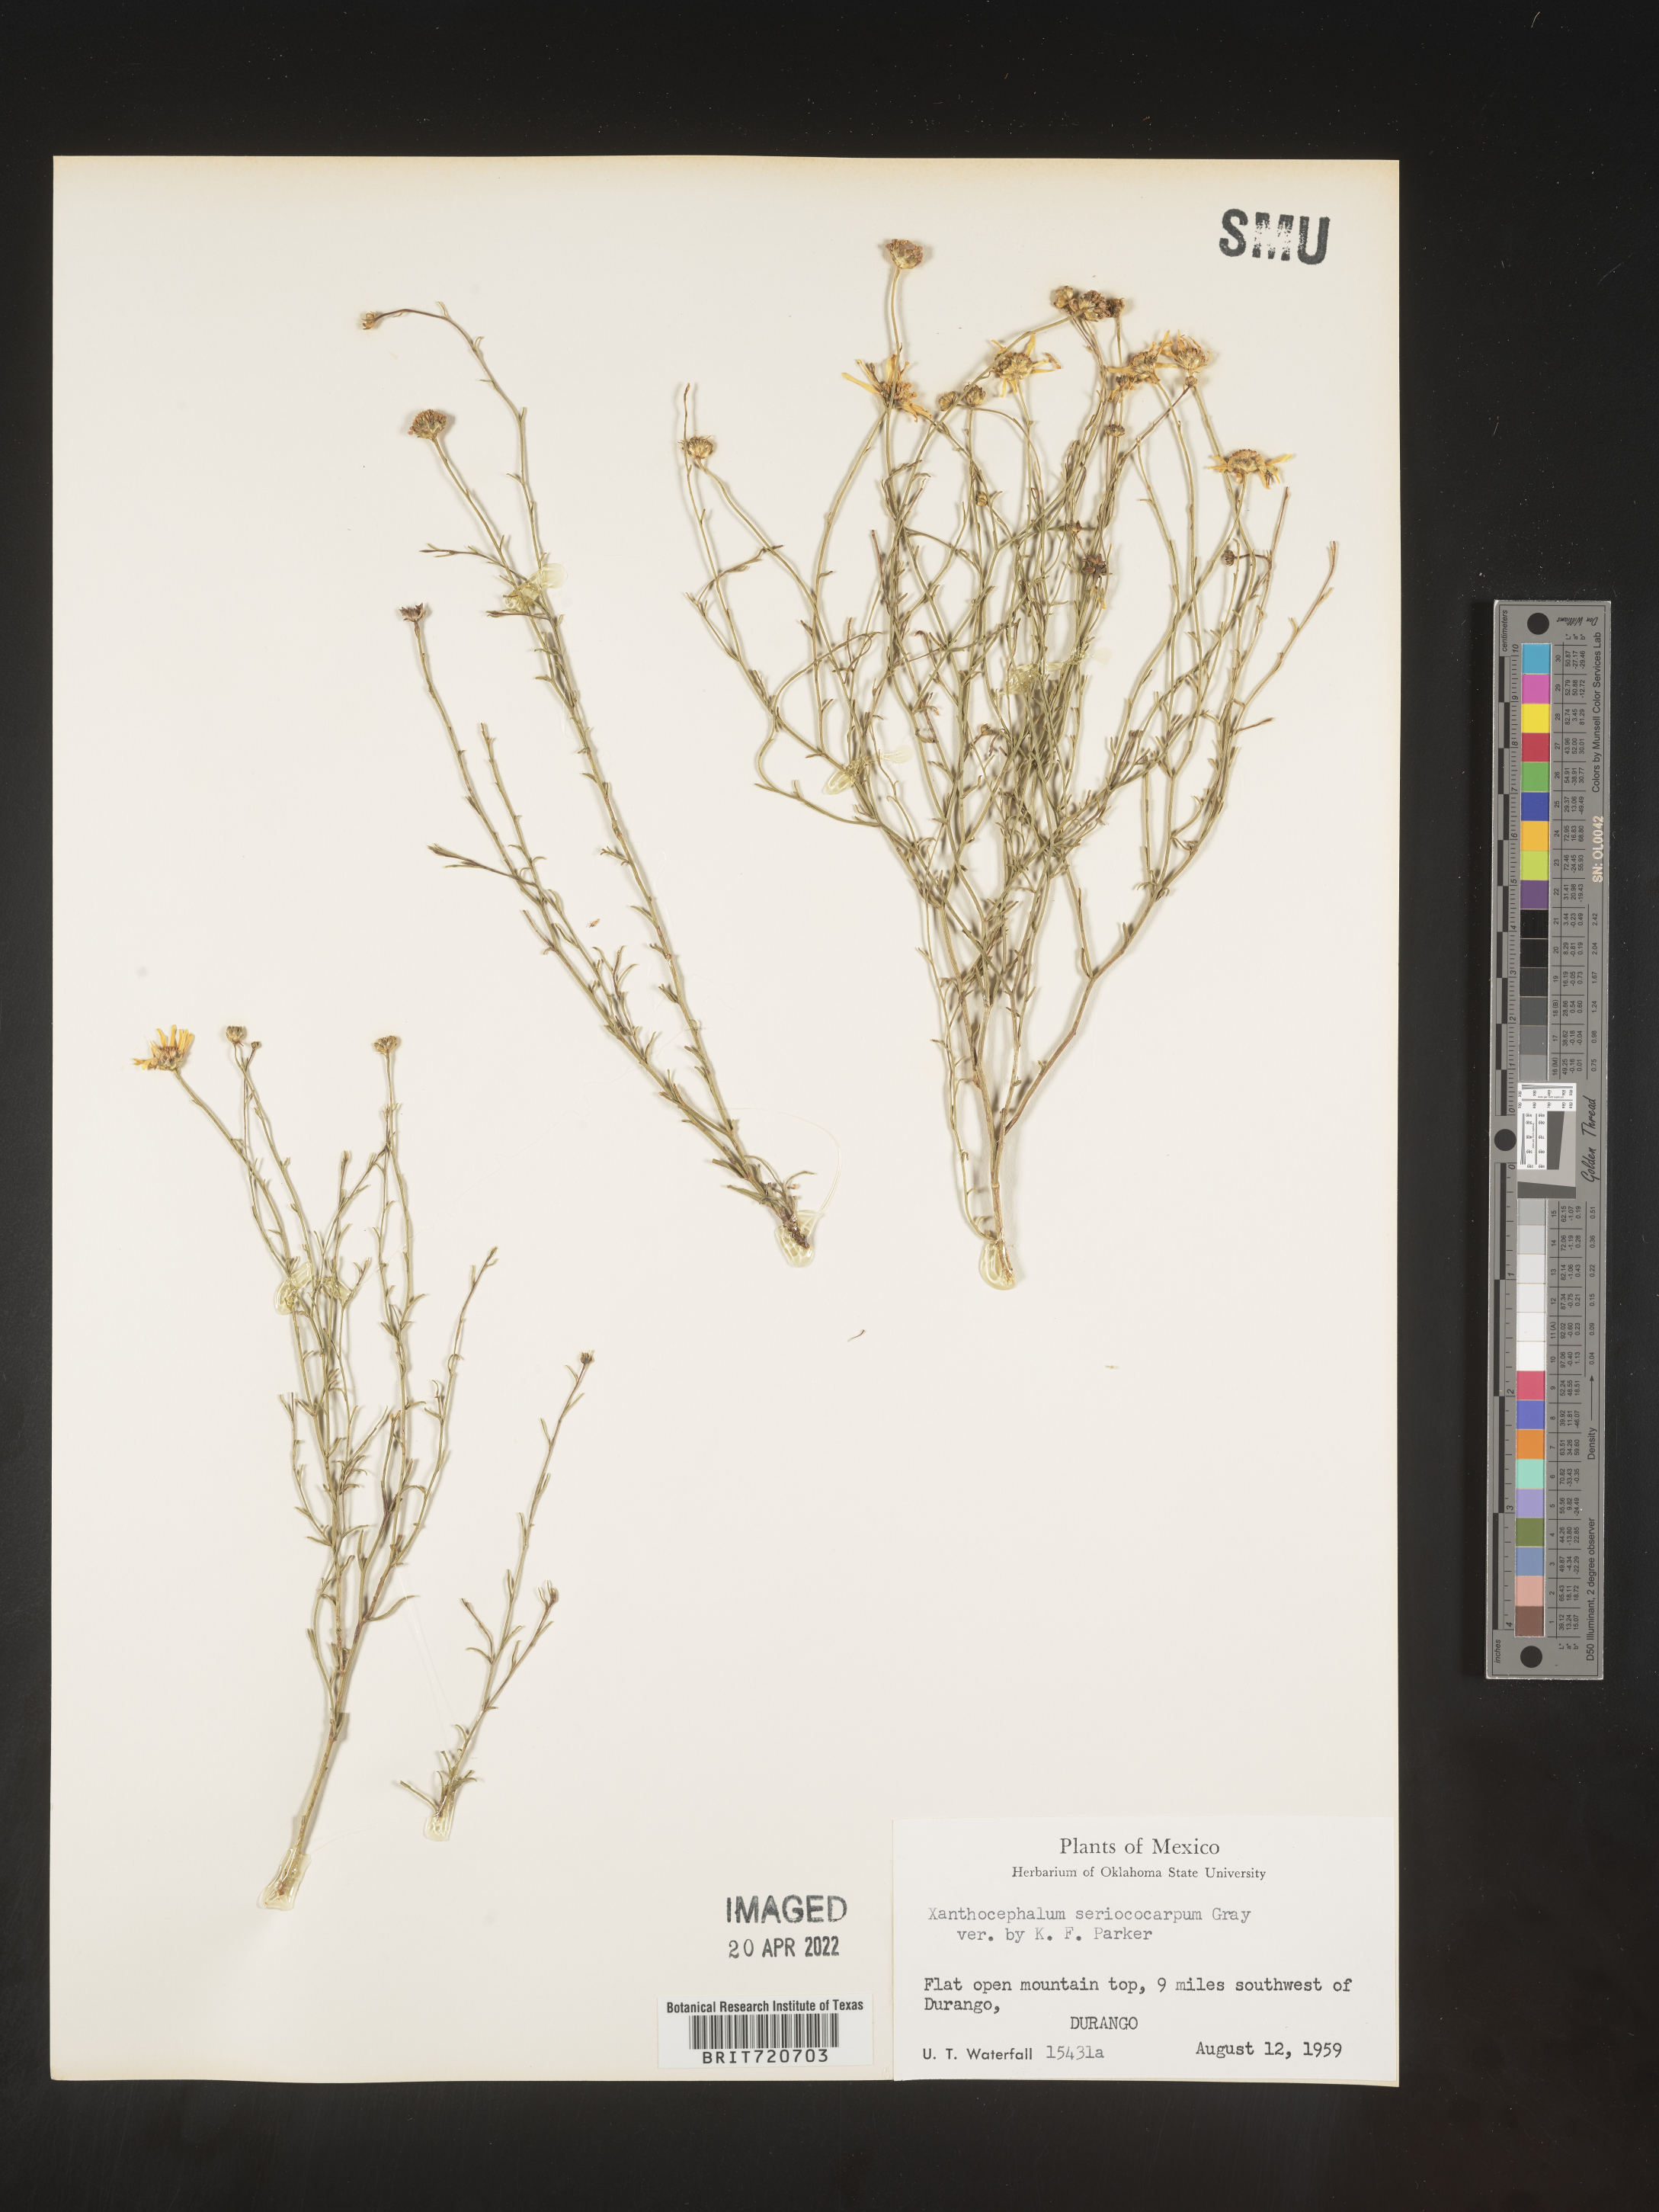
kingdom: Plantae
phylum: Tracheophyta
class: Magnoliopsida
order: Asterales
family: Asteraceae
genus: Gutierrezia
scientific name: Gutierrezia sericocarpa
